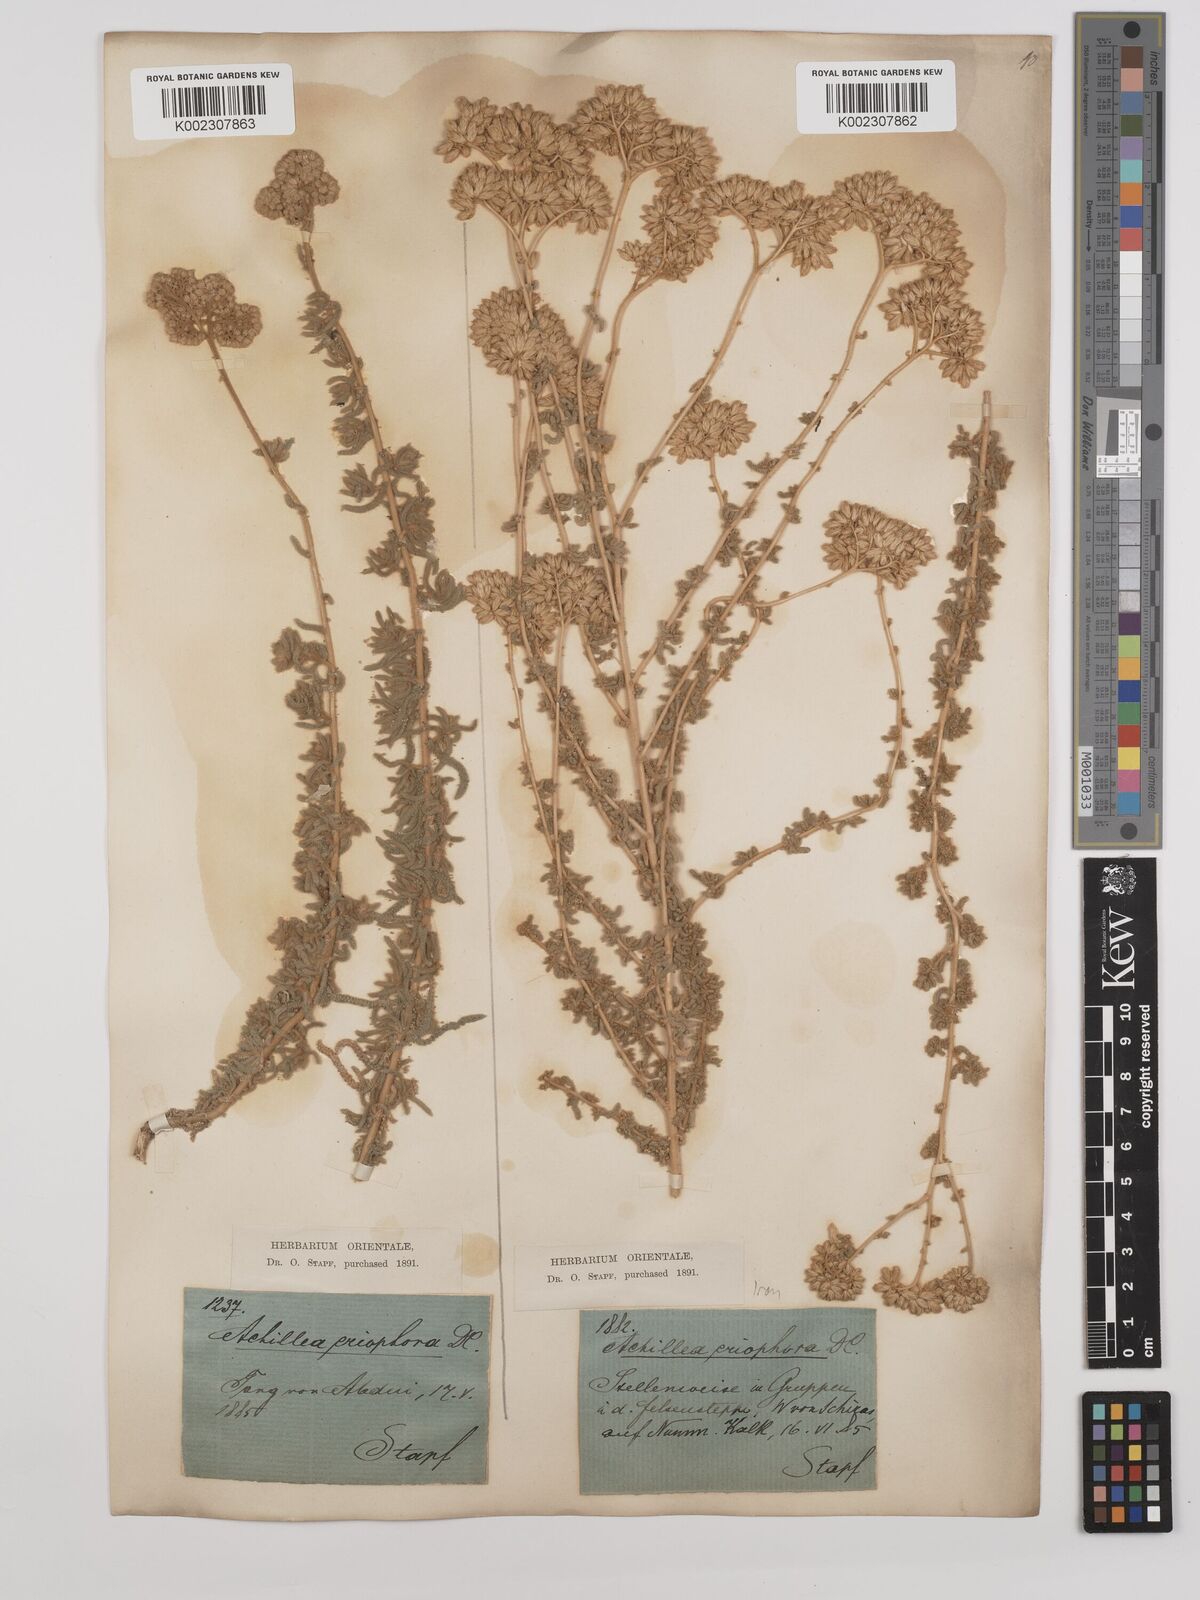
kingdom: Plantae
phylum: Tracheophyta
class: Magnoliopsida
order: Asterales
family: Asteraceae
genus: Achillea
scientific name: Achillea wilhelmsii
